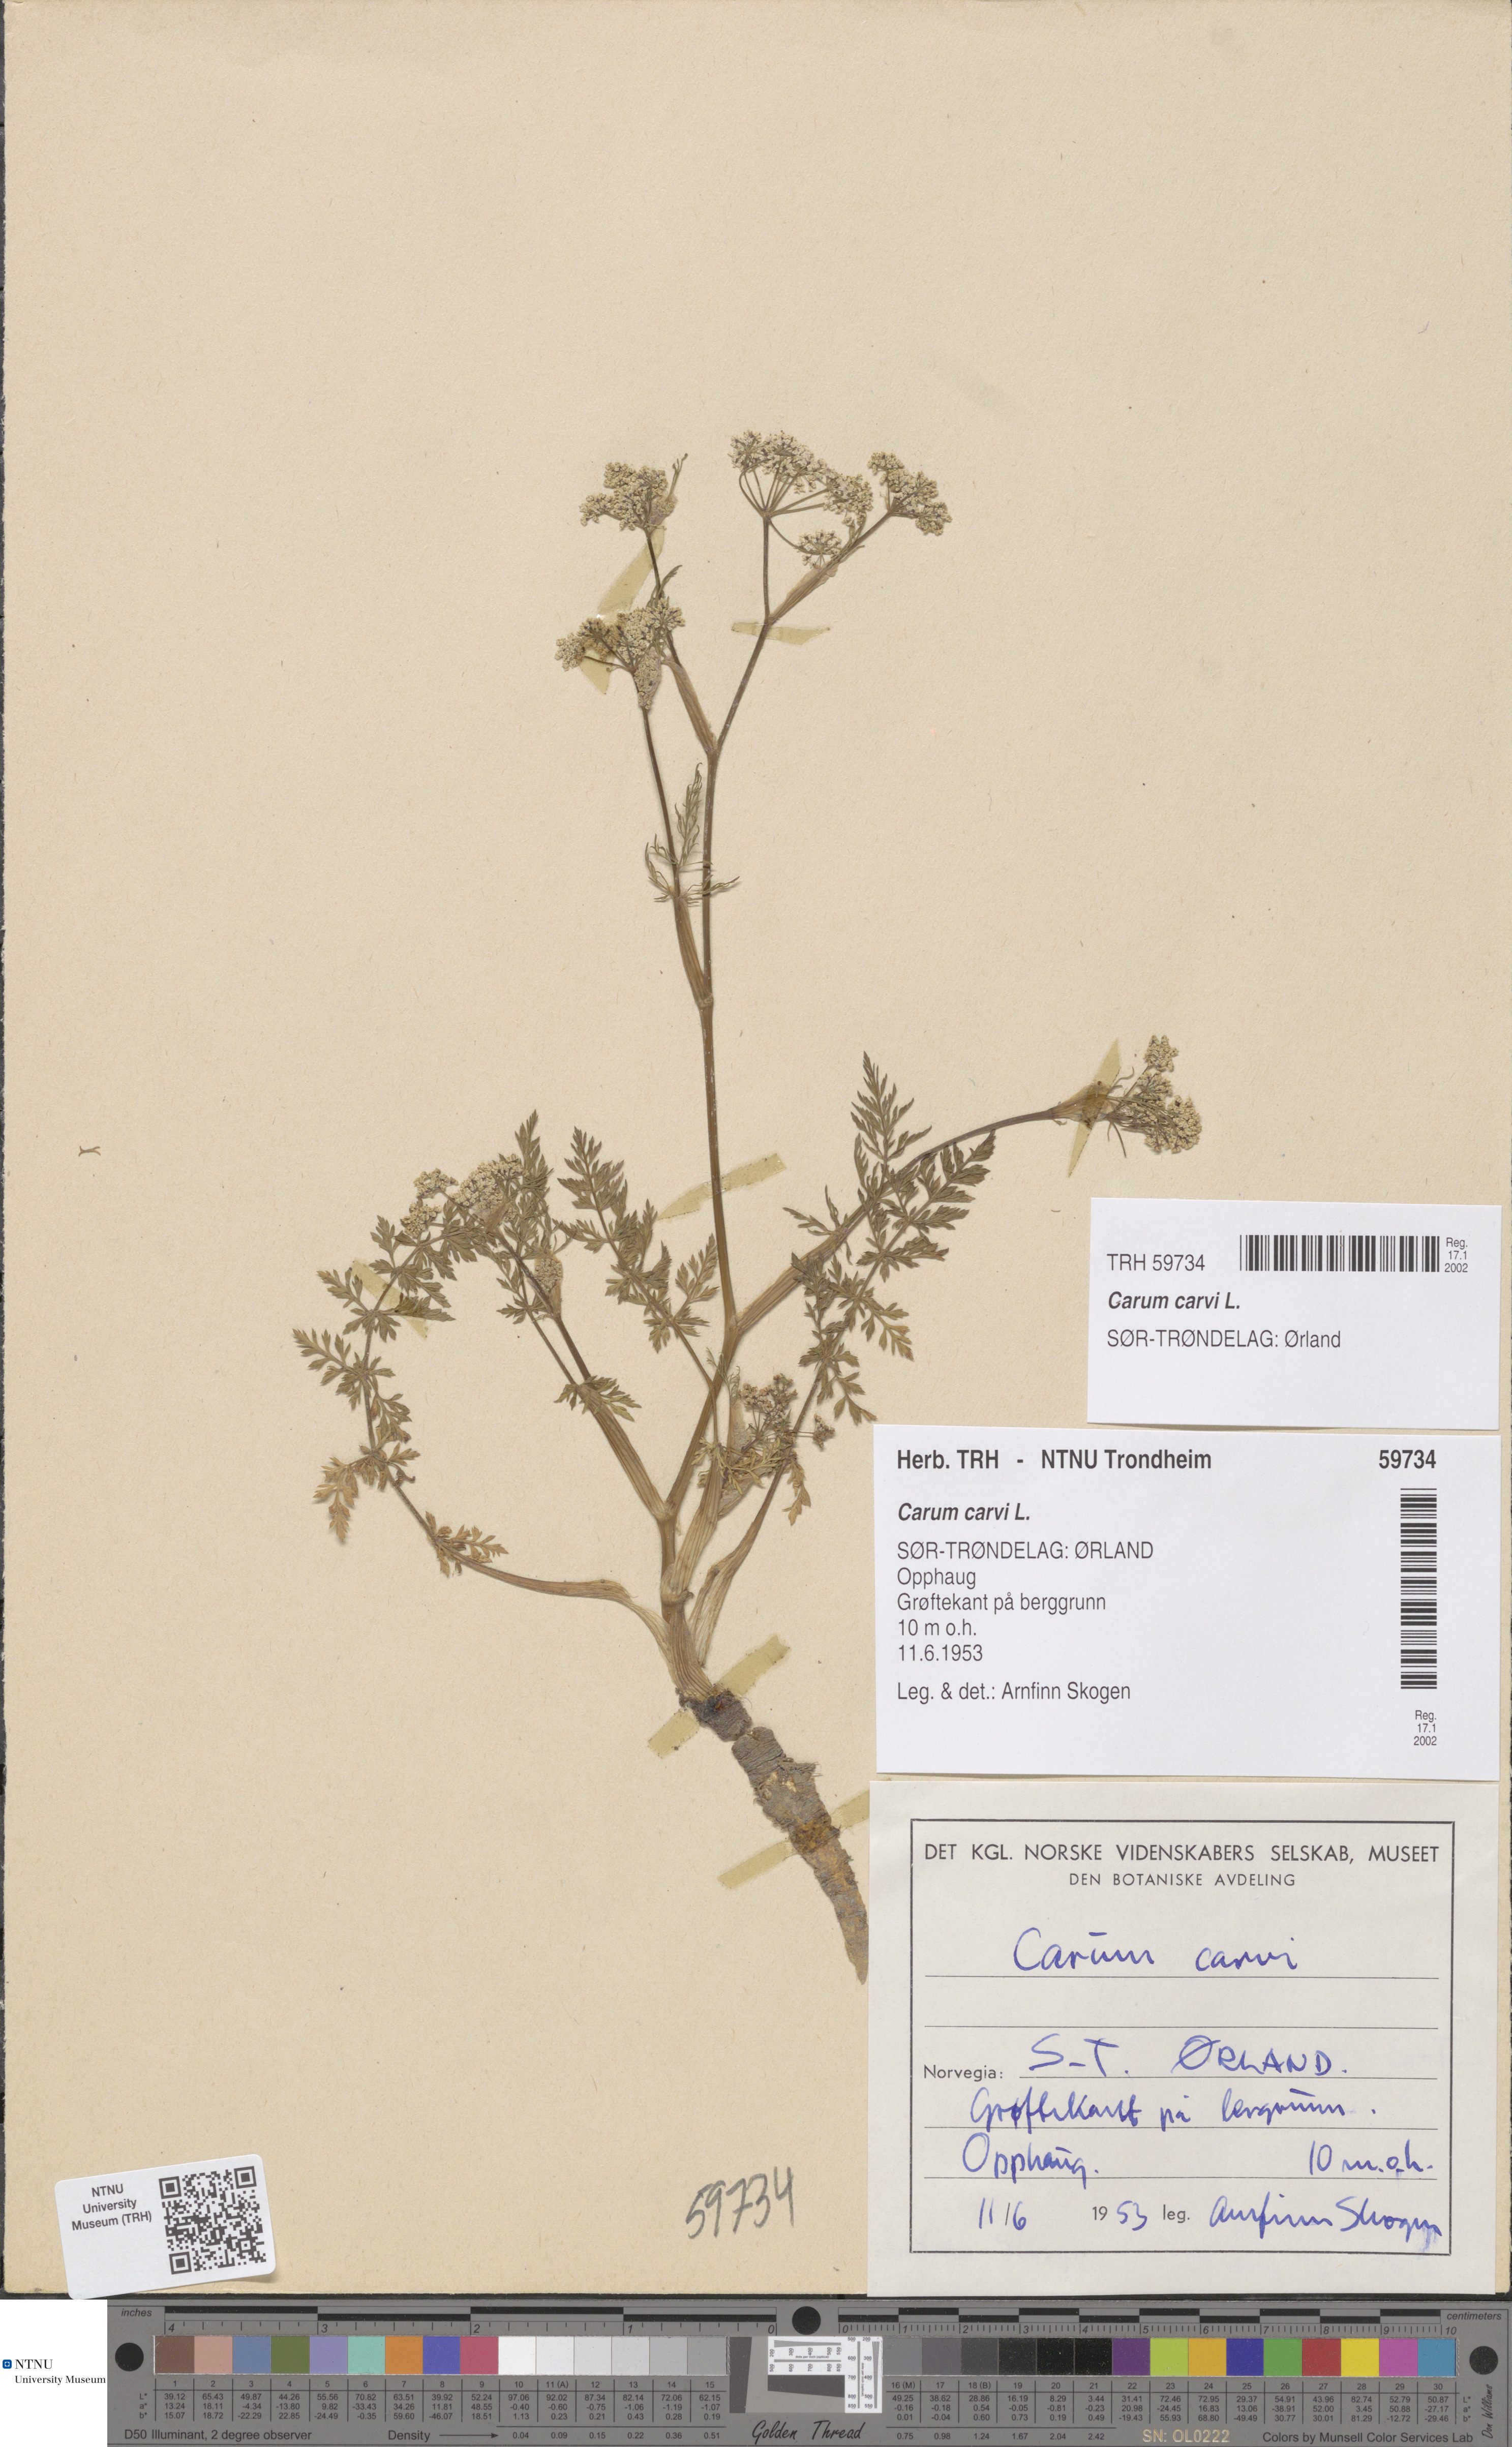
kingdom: Plantae
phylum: Tracheophyta
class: Magnoliopsida
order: Apiales
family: Apiaceae
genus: Carum
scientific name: Carum carvi
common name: Caraway
